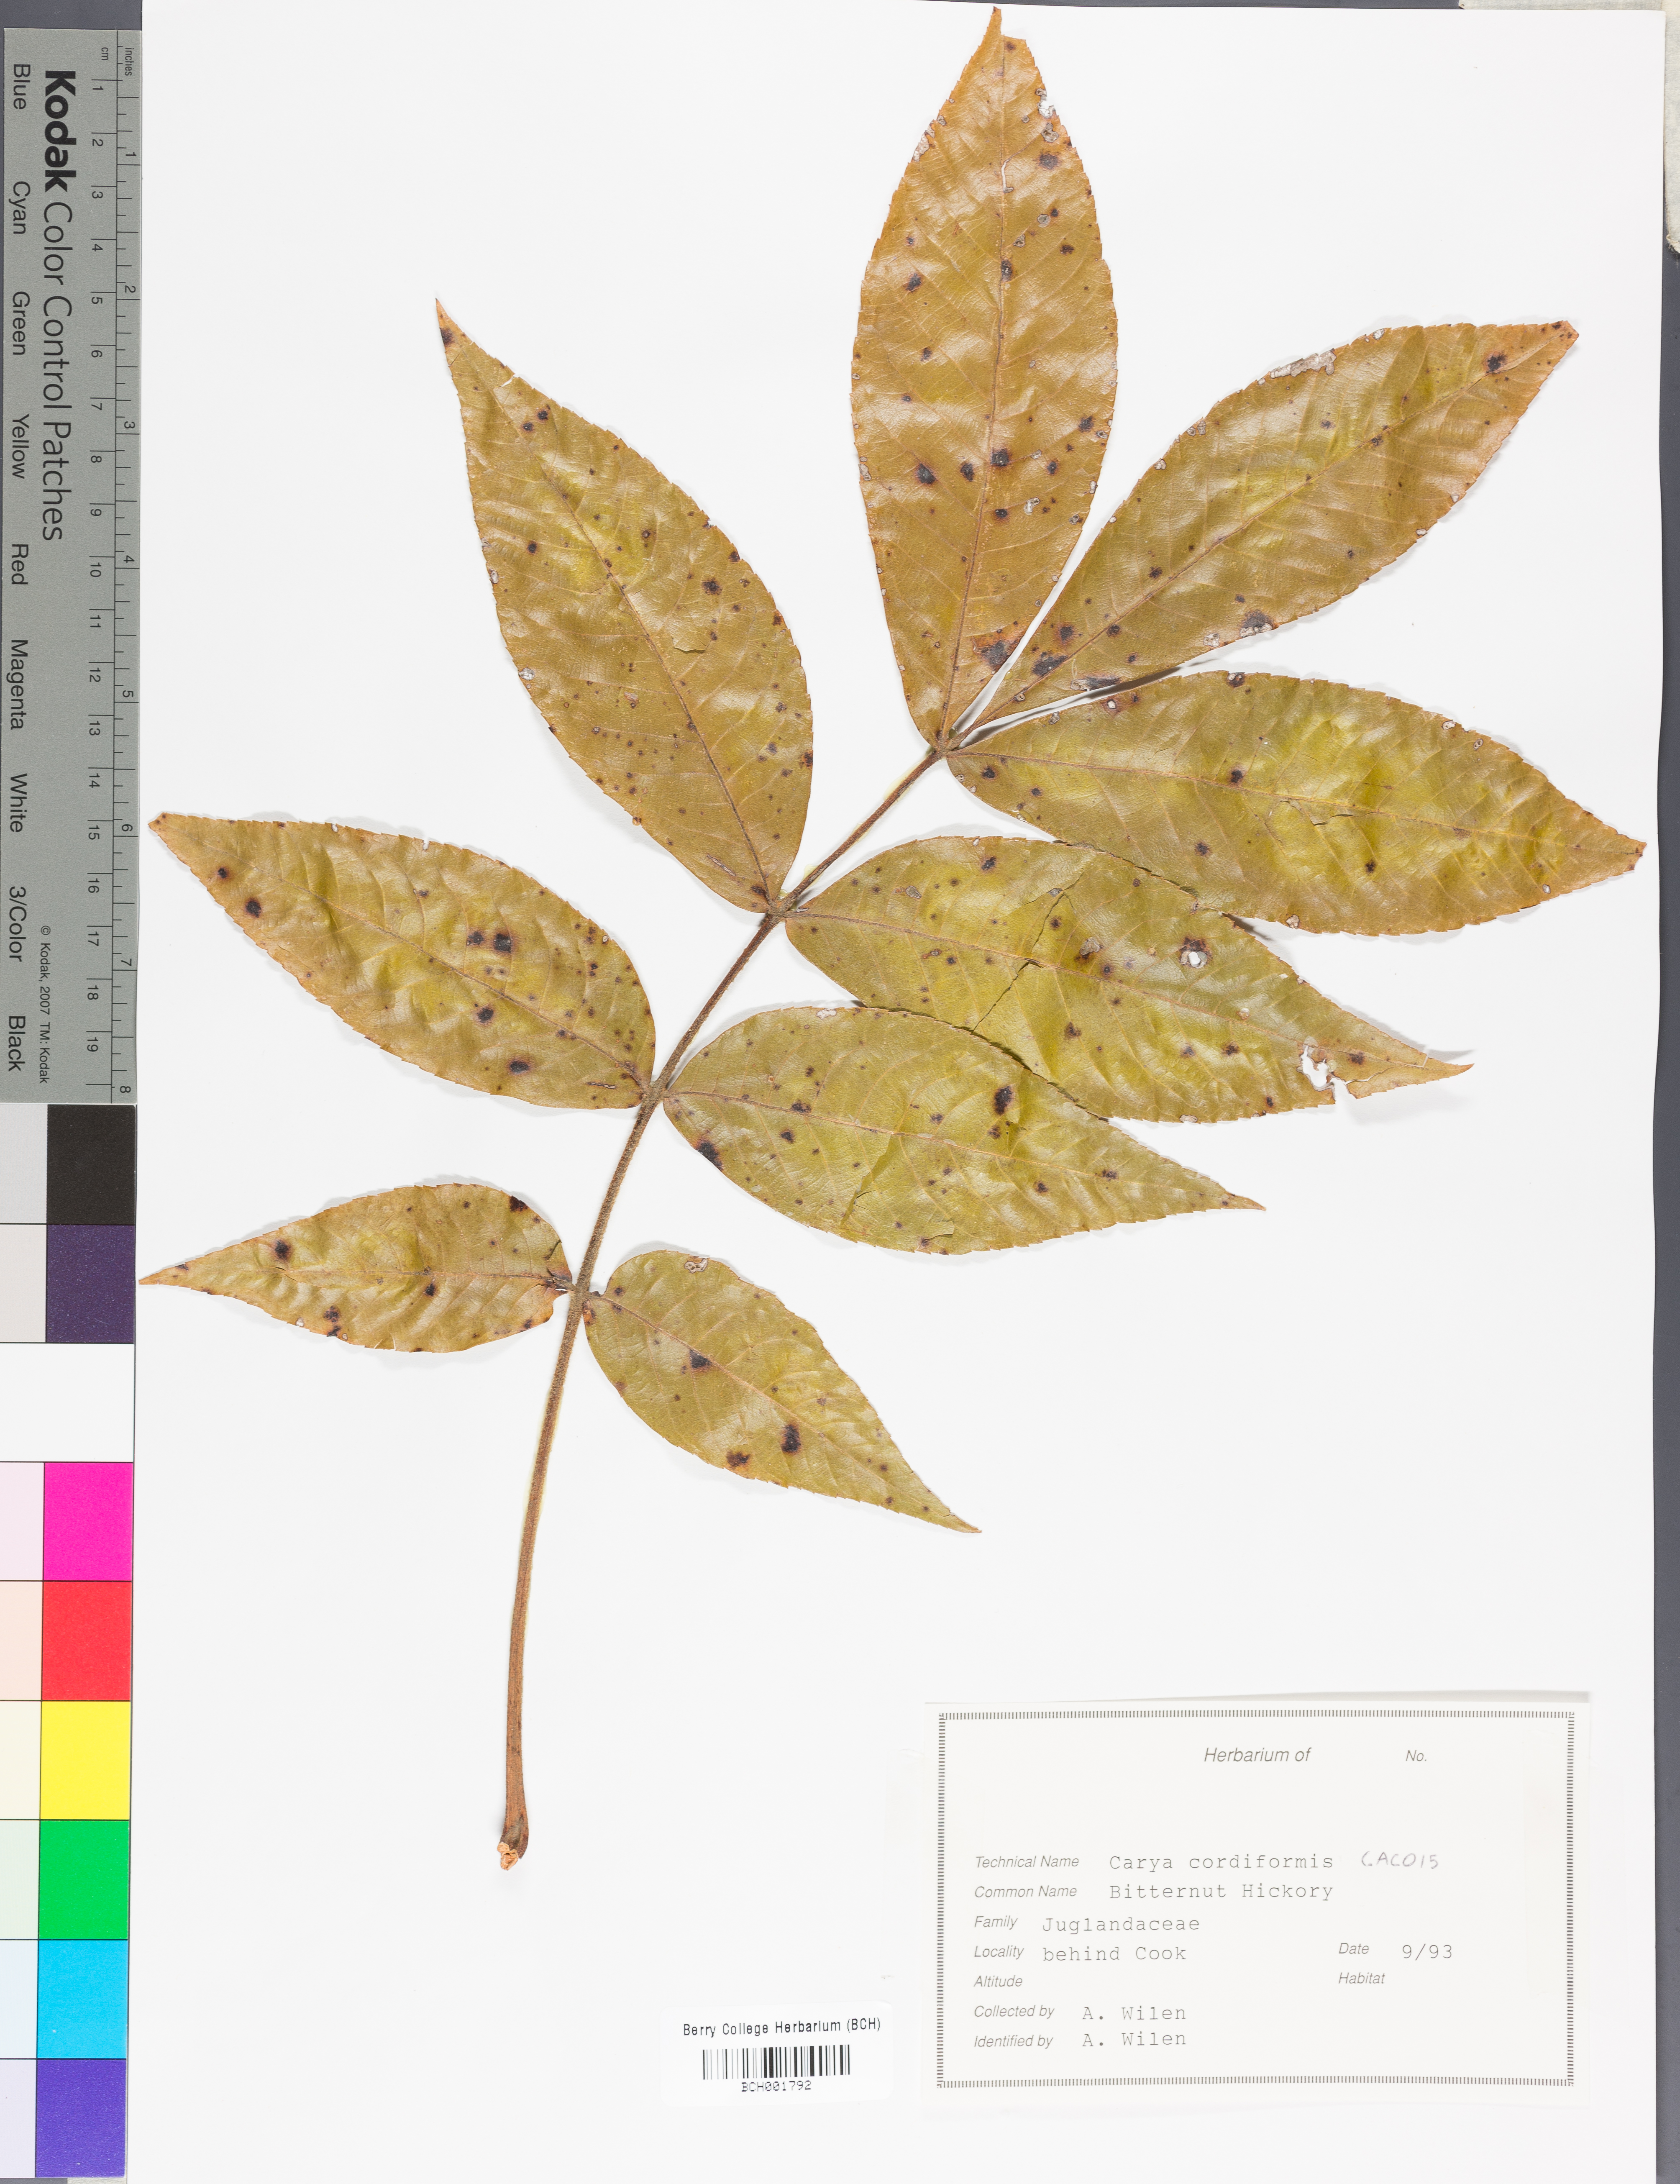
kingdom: Plantae
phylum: Tracheophyta
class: Magnoliopsida
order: Fagales
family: Juglandaceae
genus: Carya
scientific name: Carya cordiformis
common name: Bitternut hickory
